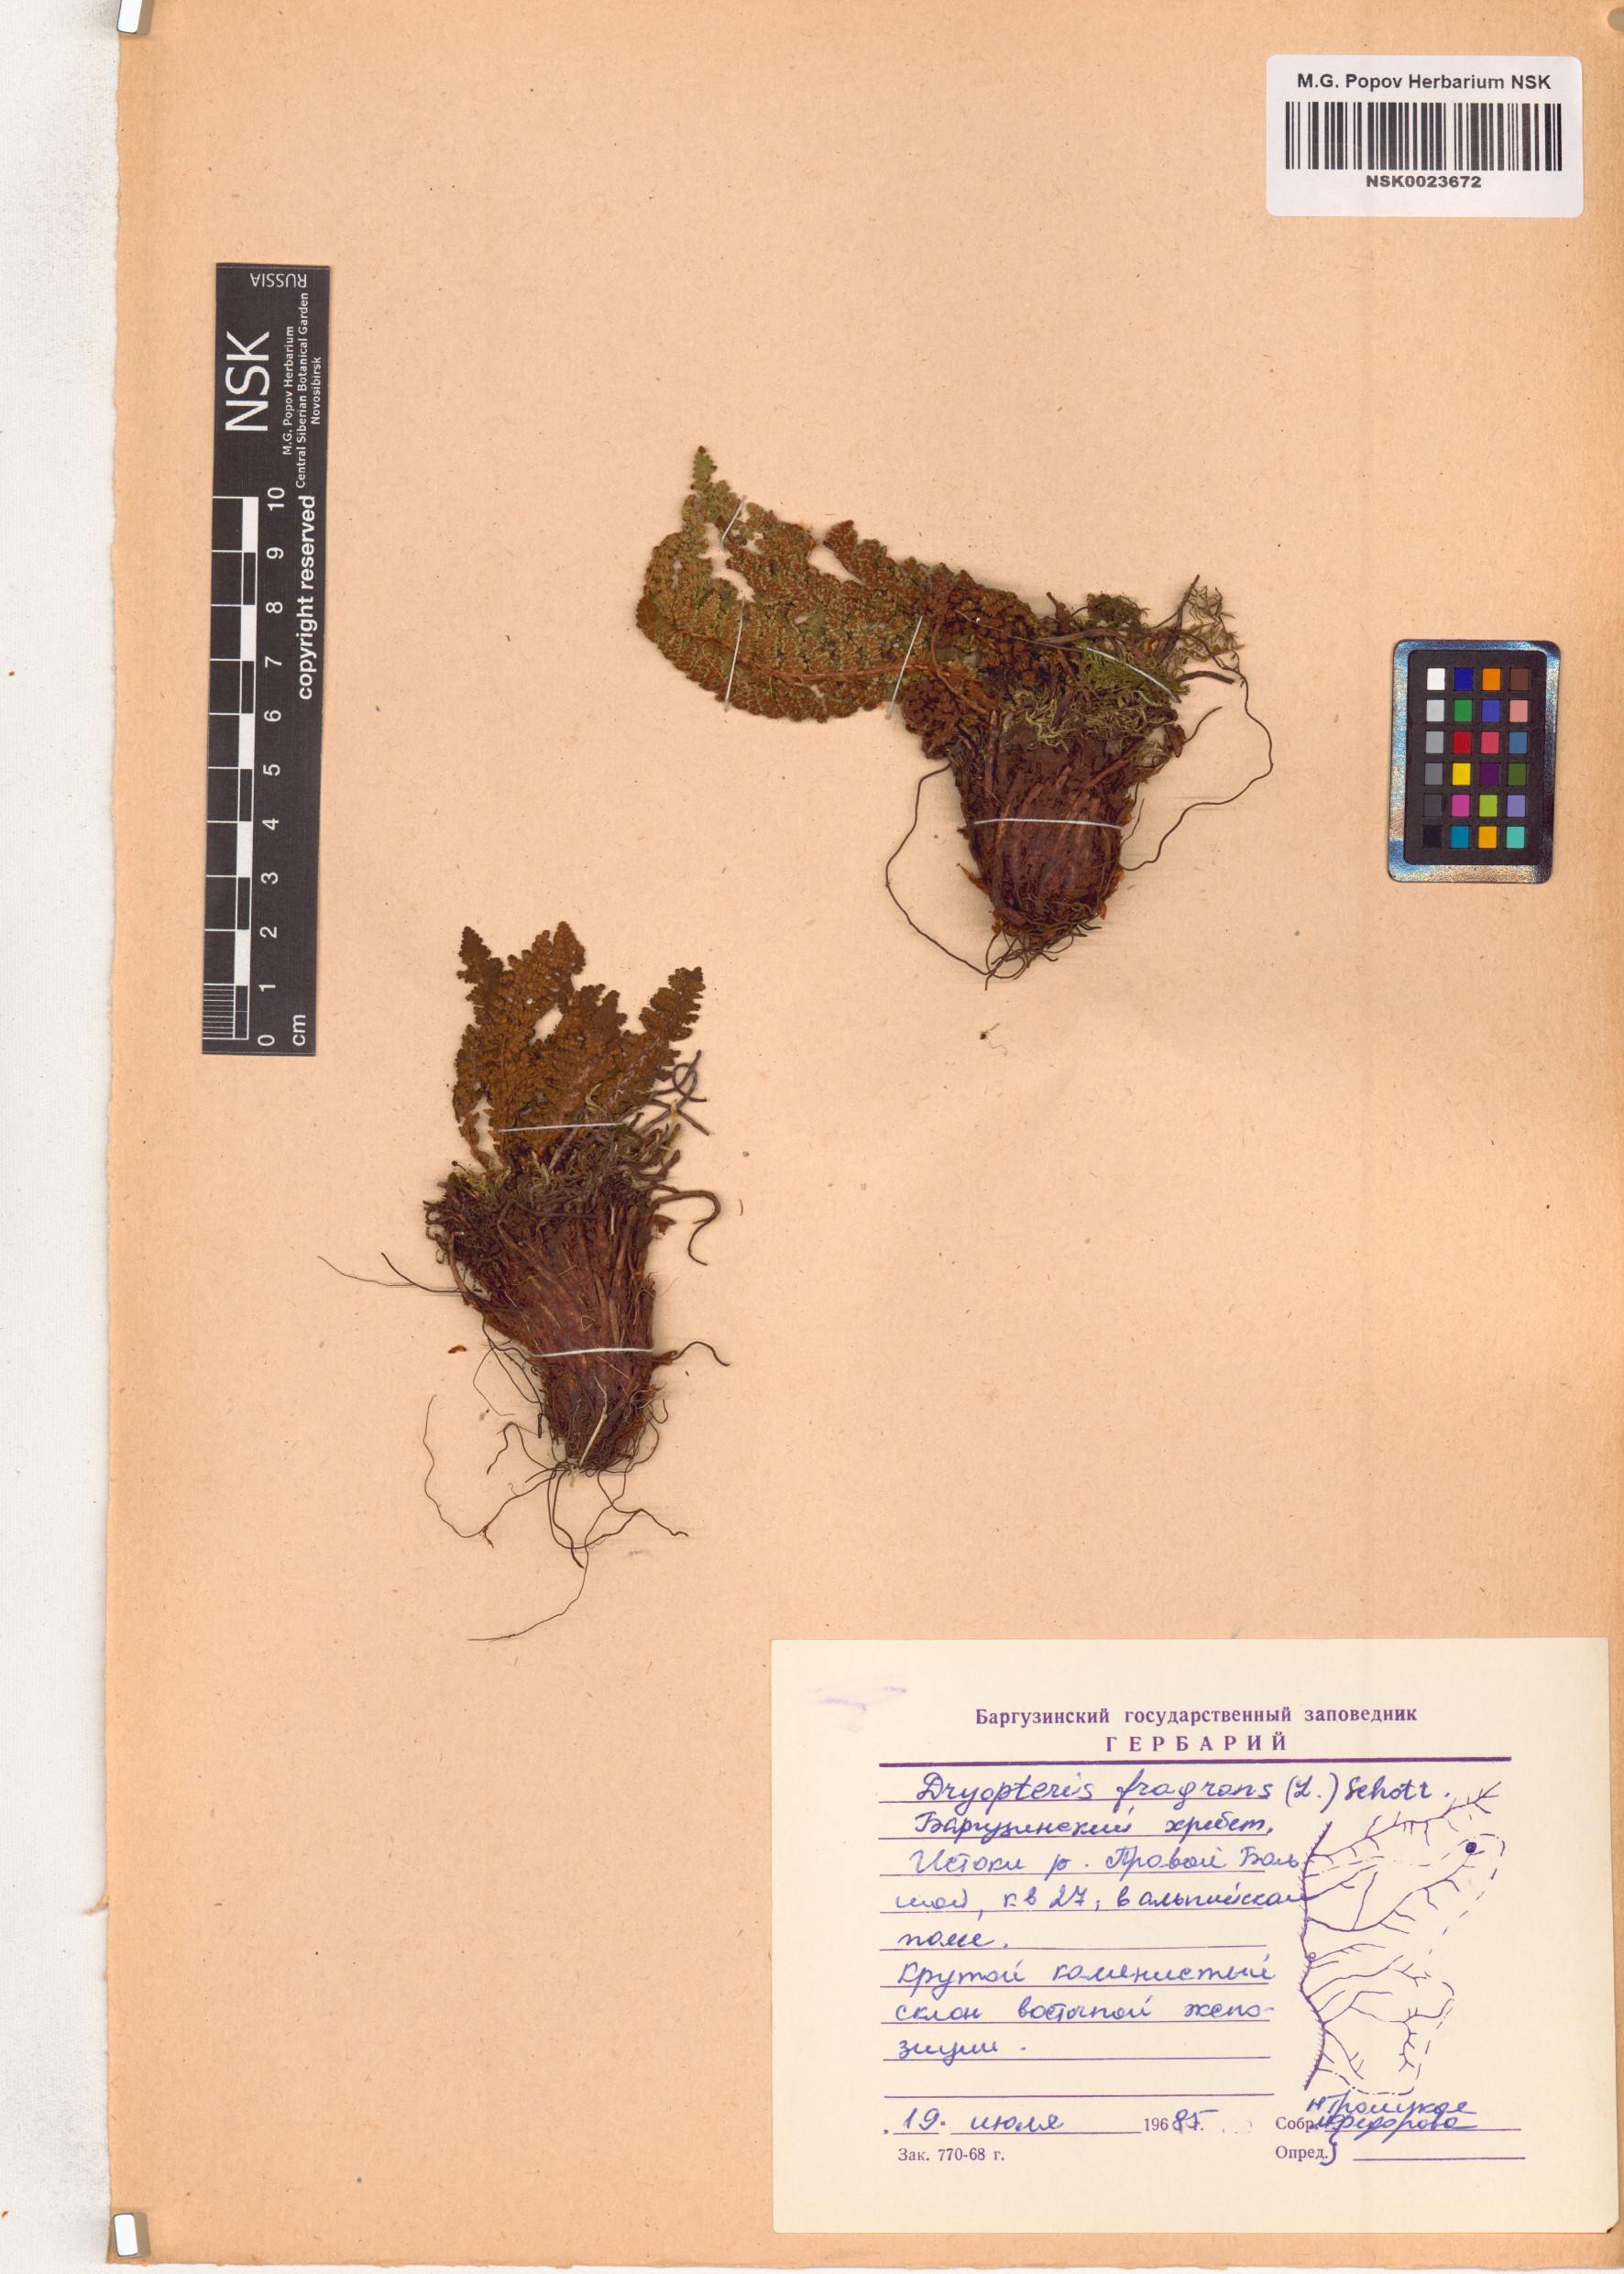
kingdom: Plantae
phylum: Tracheophyta
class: Polypodiopsida
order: Polypodiales
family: Dryopteridaceae
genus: Dryopteris
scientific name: Dryopteris fragrans
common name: Fragrant wood fern
